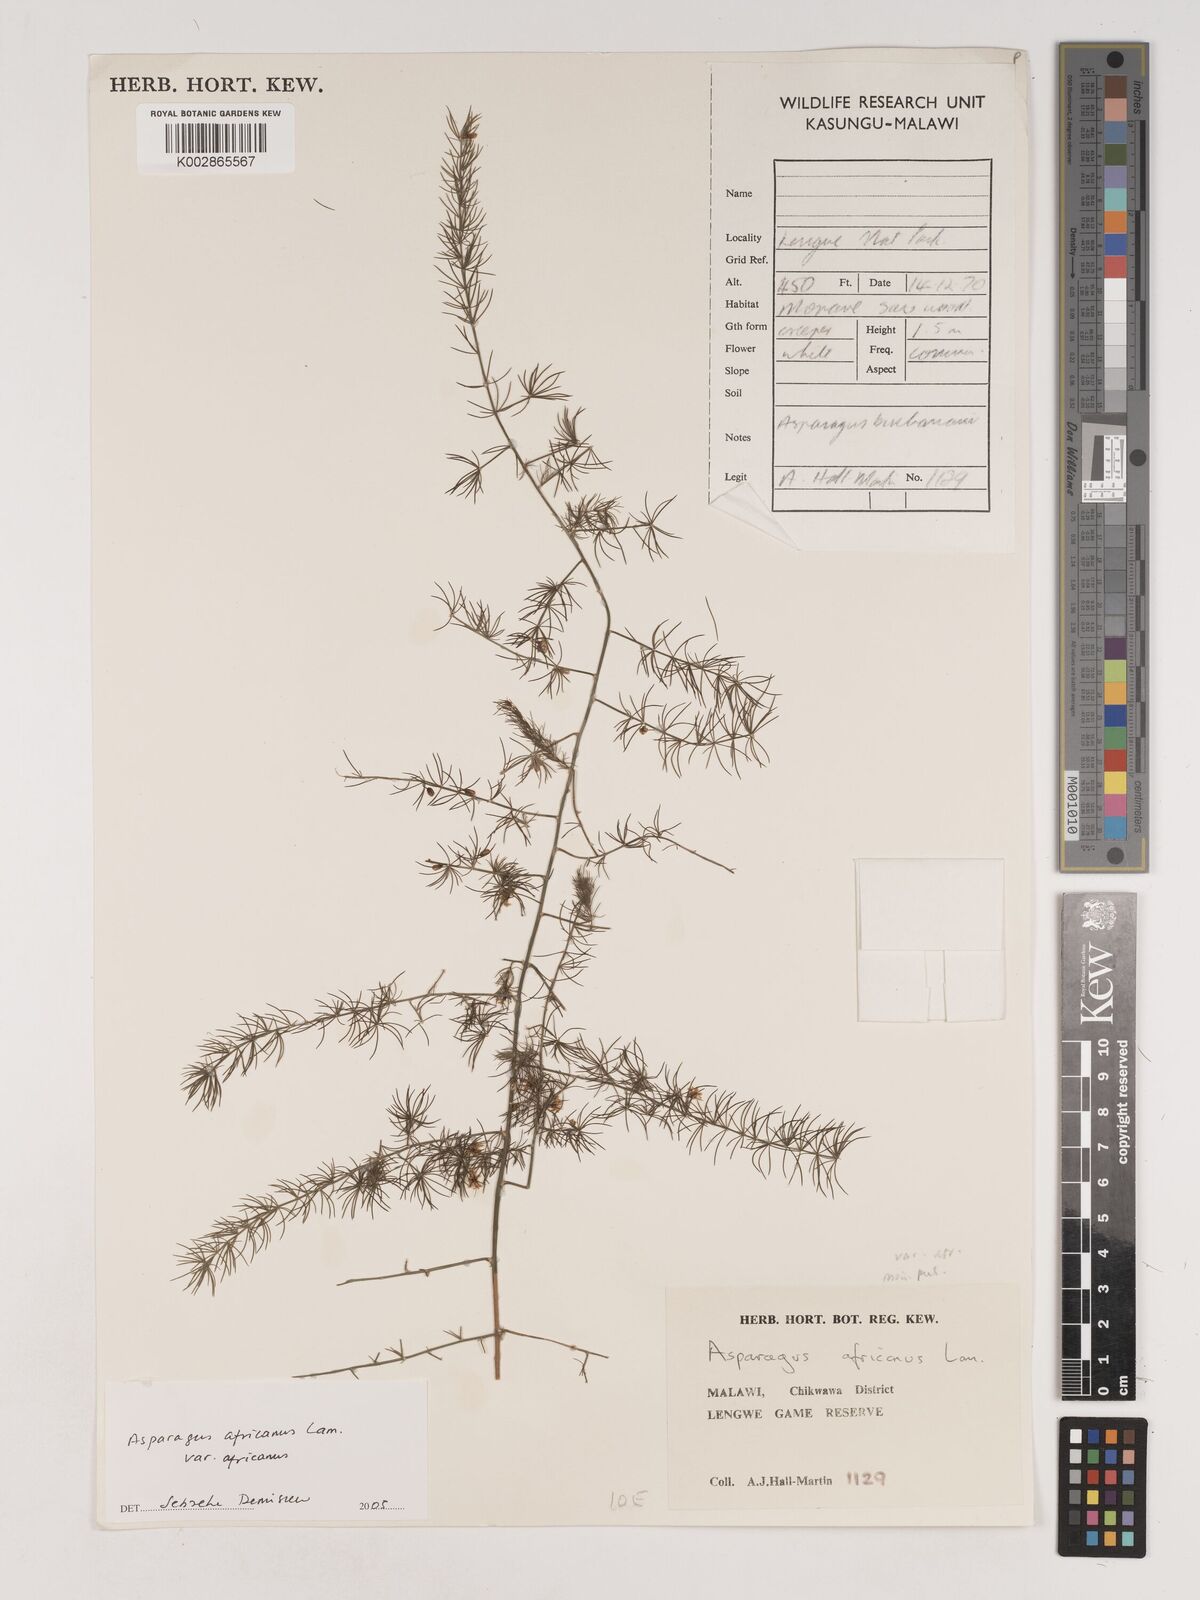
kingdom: Plantae
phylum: Tracheophyta
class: Liliopsida
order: Asparagales
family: Asparagaceae
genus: Asparagus
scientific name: Asparagus africanus
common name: Asparagus-fern
